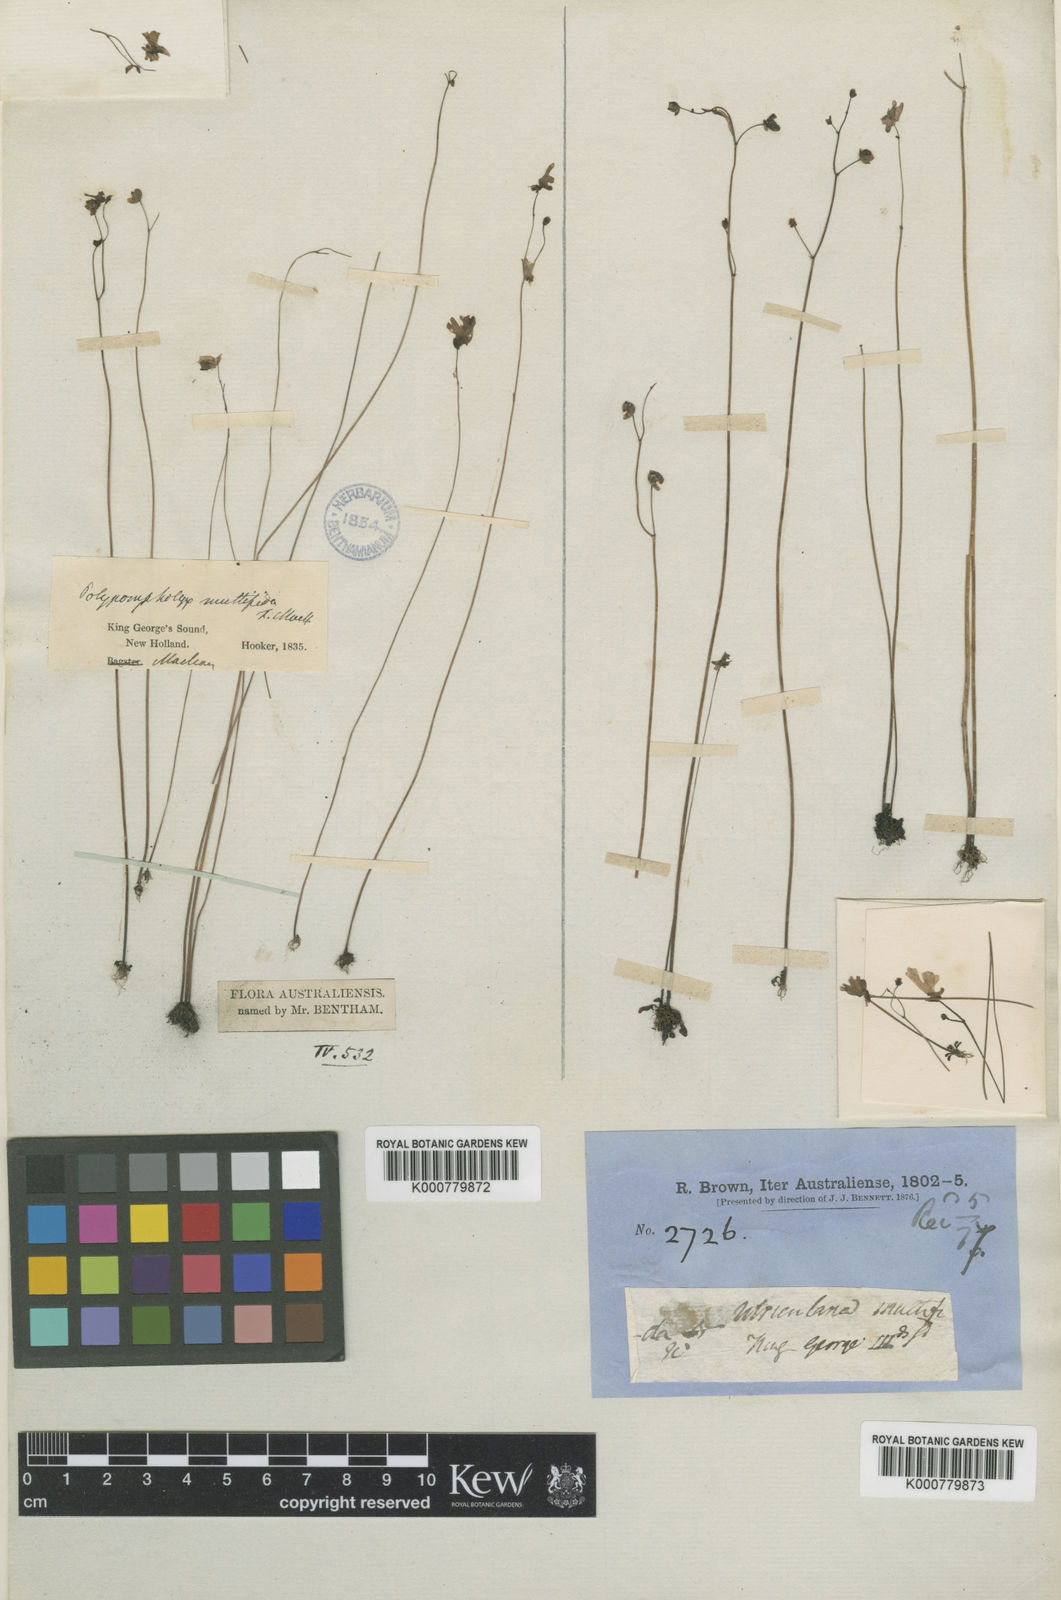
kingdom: Plantae
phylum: Tracheophyta
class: Magnoliopsida
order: Lamiales
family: Lentibulariaceae
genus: Utricularia
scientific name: Utricularia multifida
